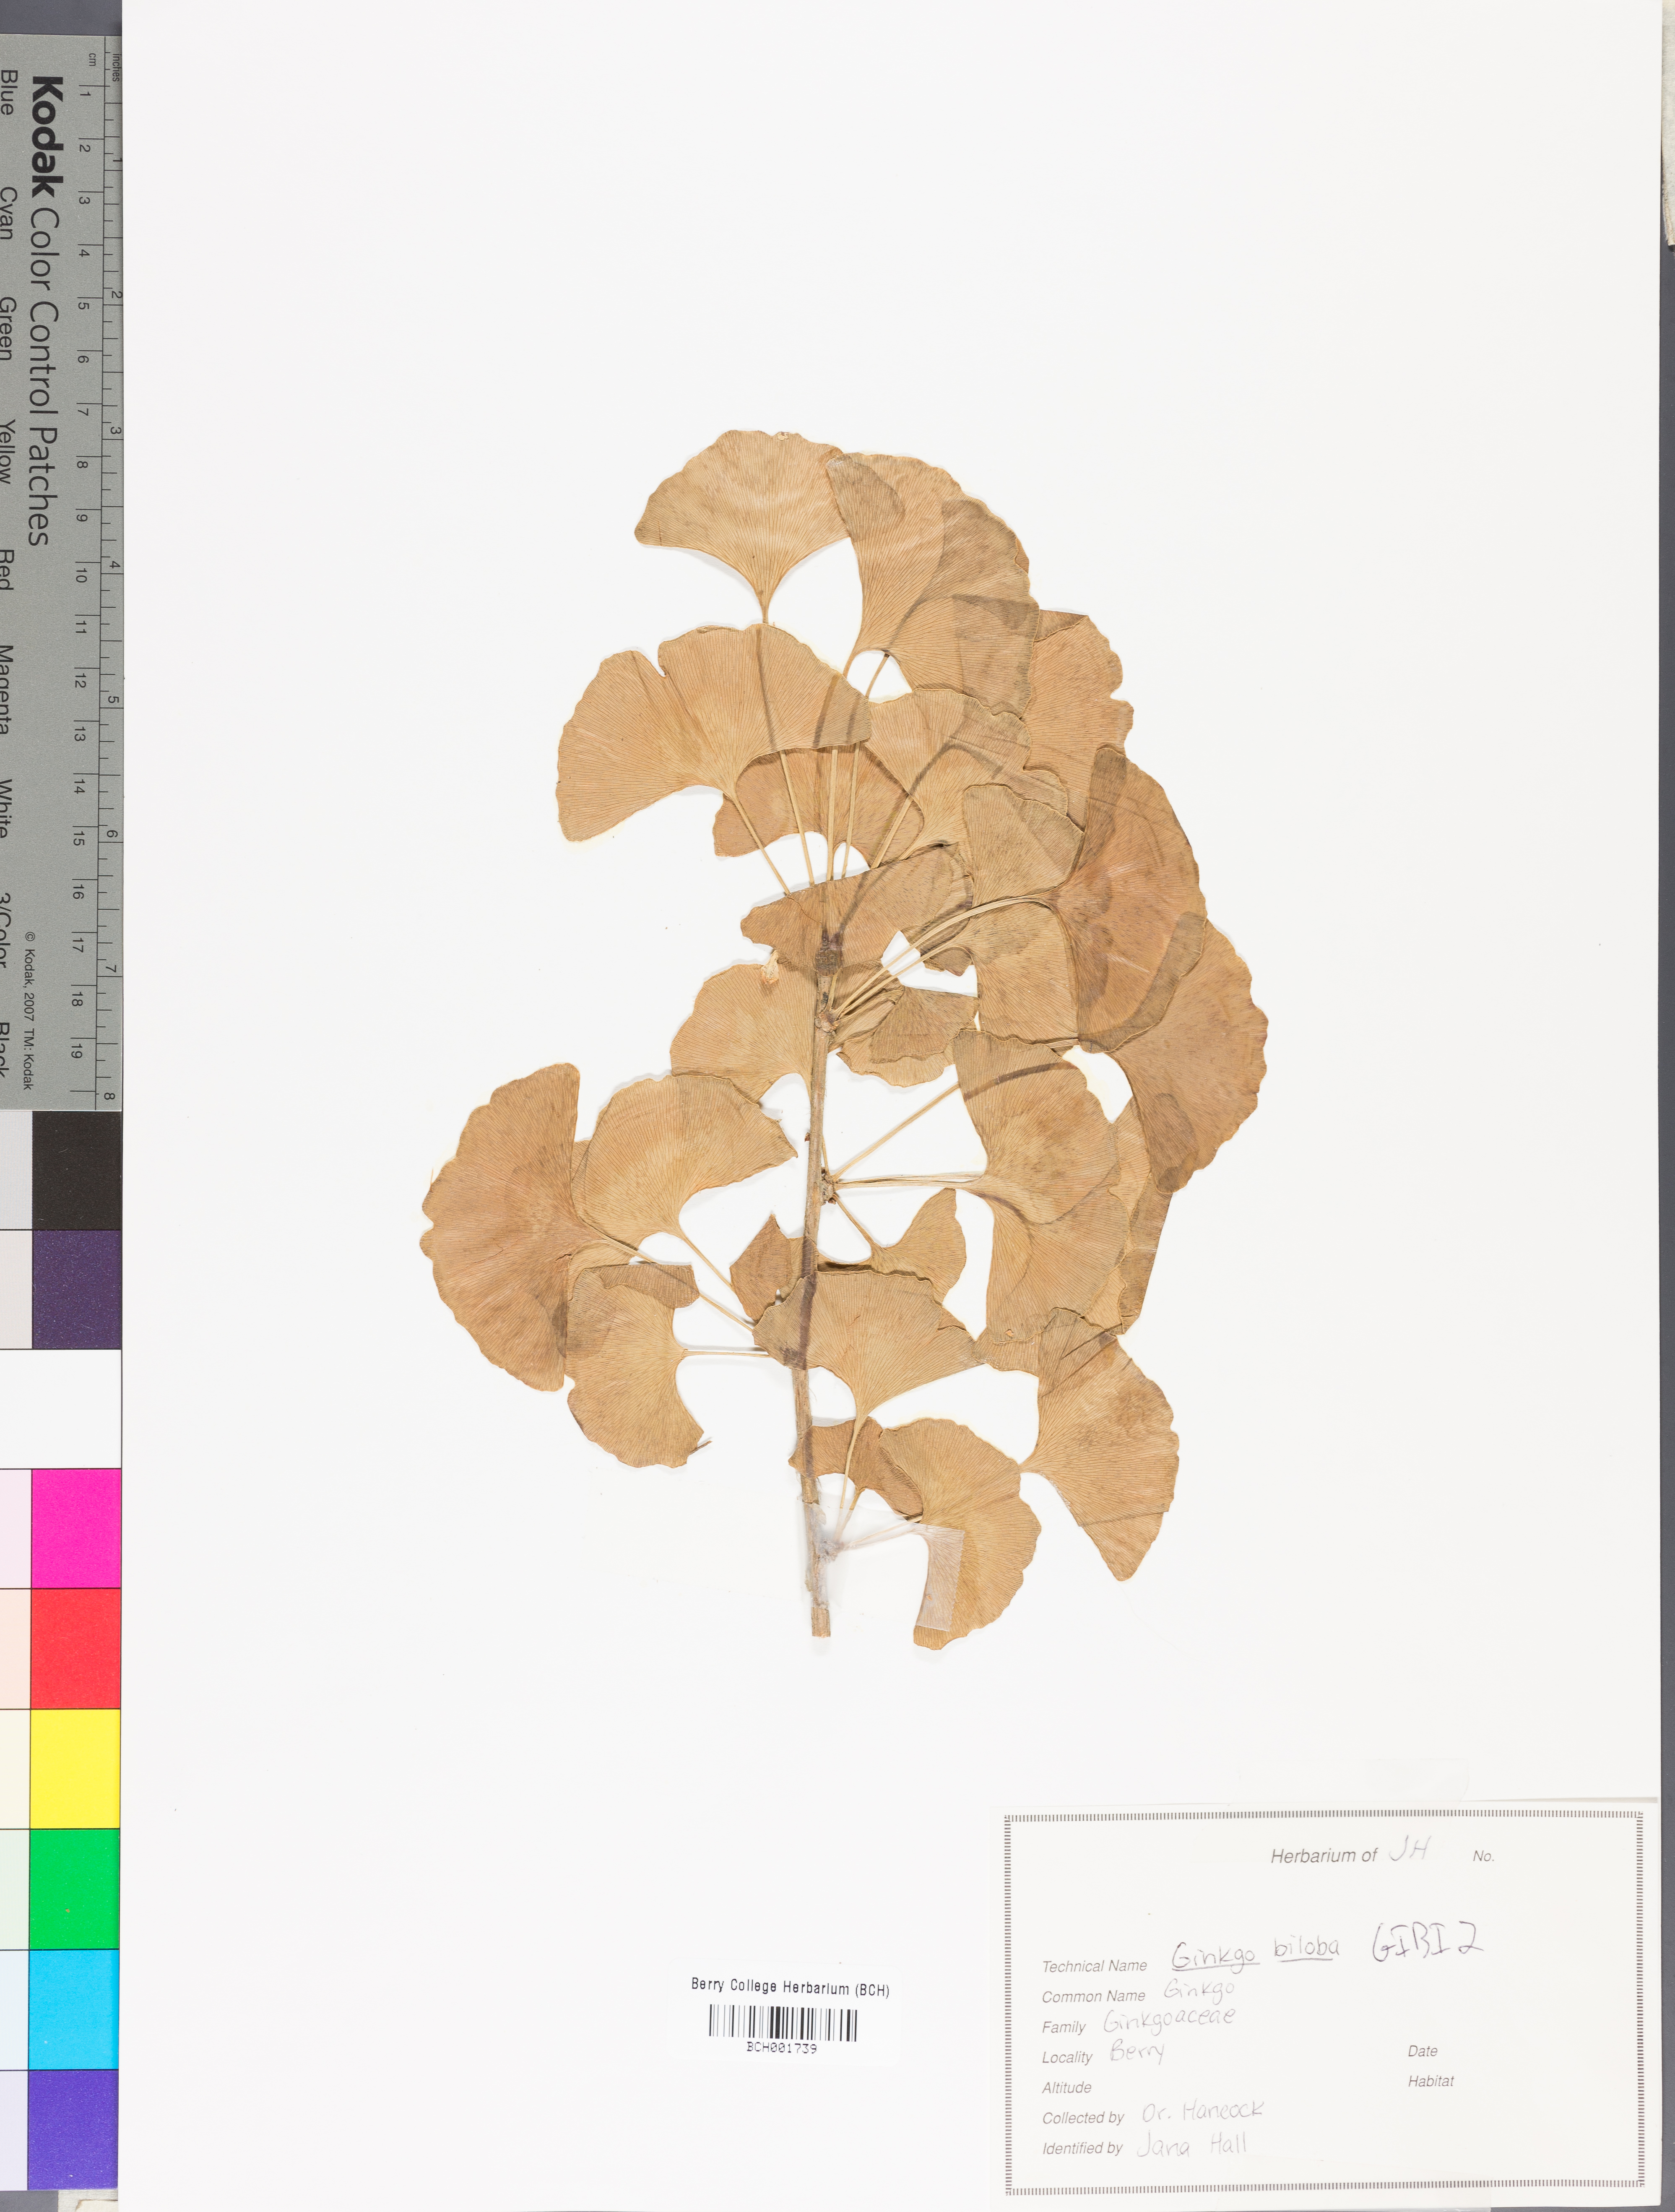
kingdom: Plantae
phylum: Tracheophyta
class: Ginkgoopsida
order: Ginkgoales
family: Ginkgoaceae
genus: Ginkgo
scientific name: Ginkgo biloba
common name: Ginkgo
